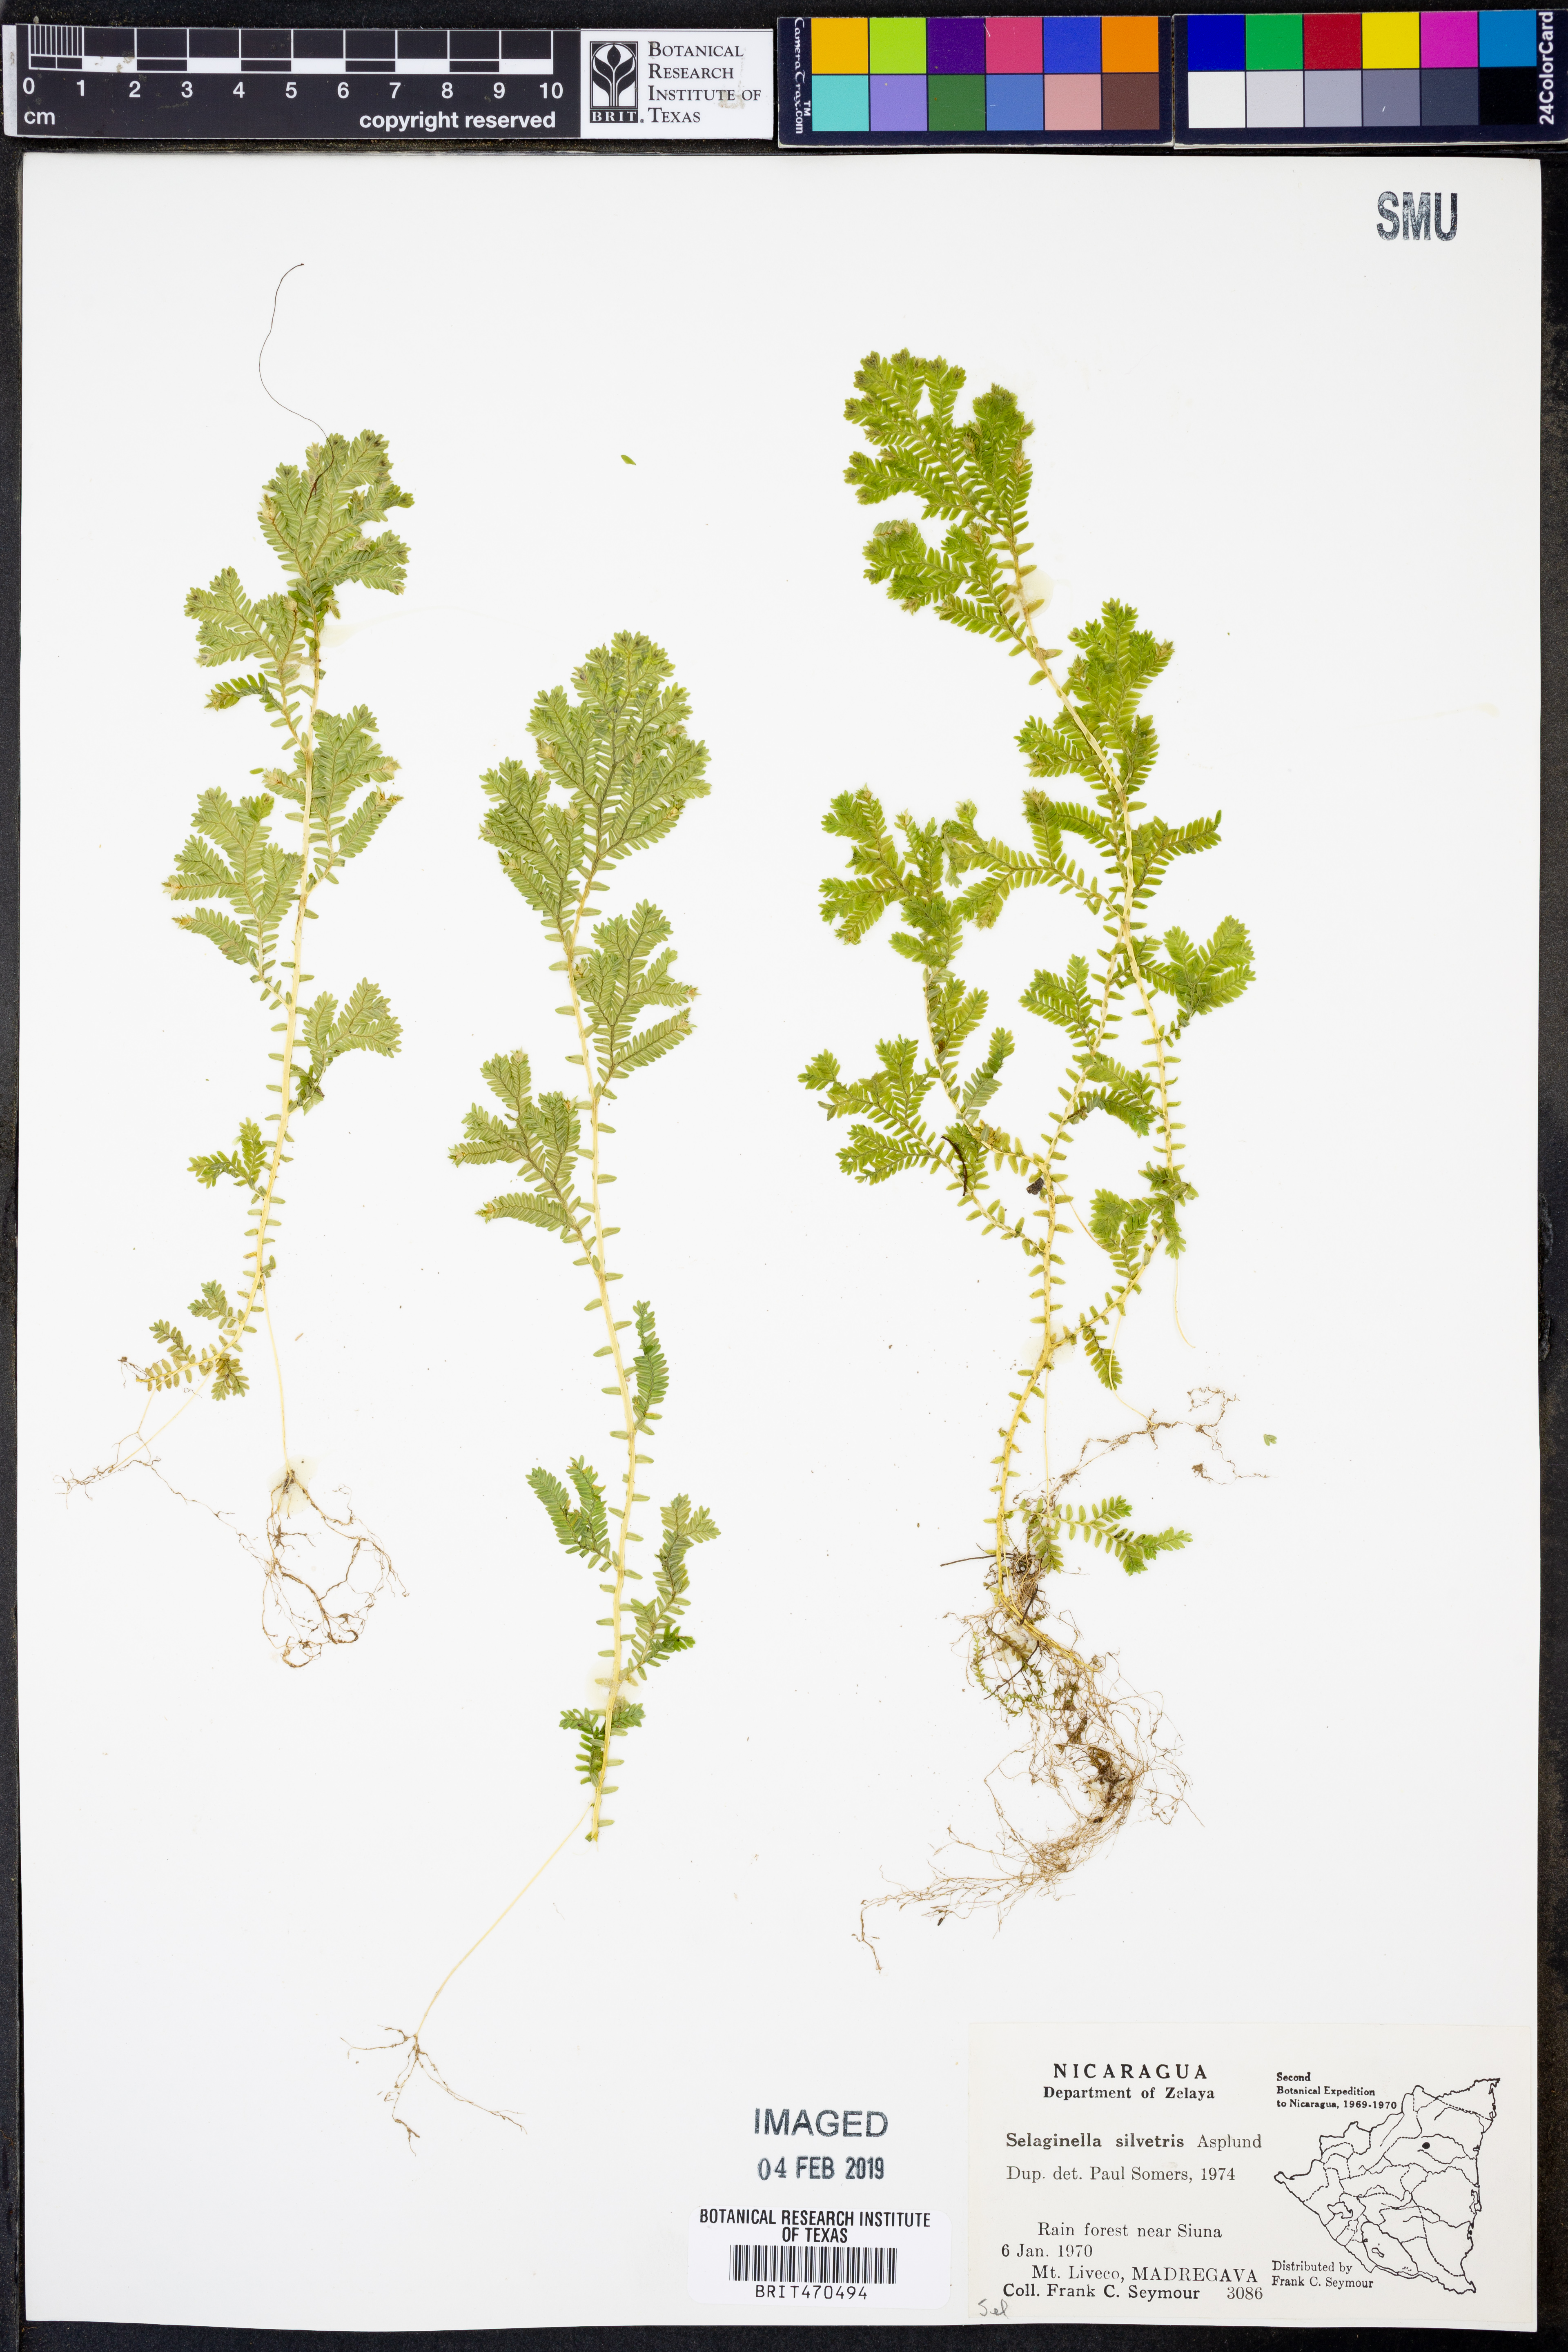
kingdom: Plantae
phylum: Tracheophyta
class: Lycopodiopsida
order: Selaginellales
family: Selaginellaceae
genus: Selaginella
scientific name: Selaginella silvestris
